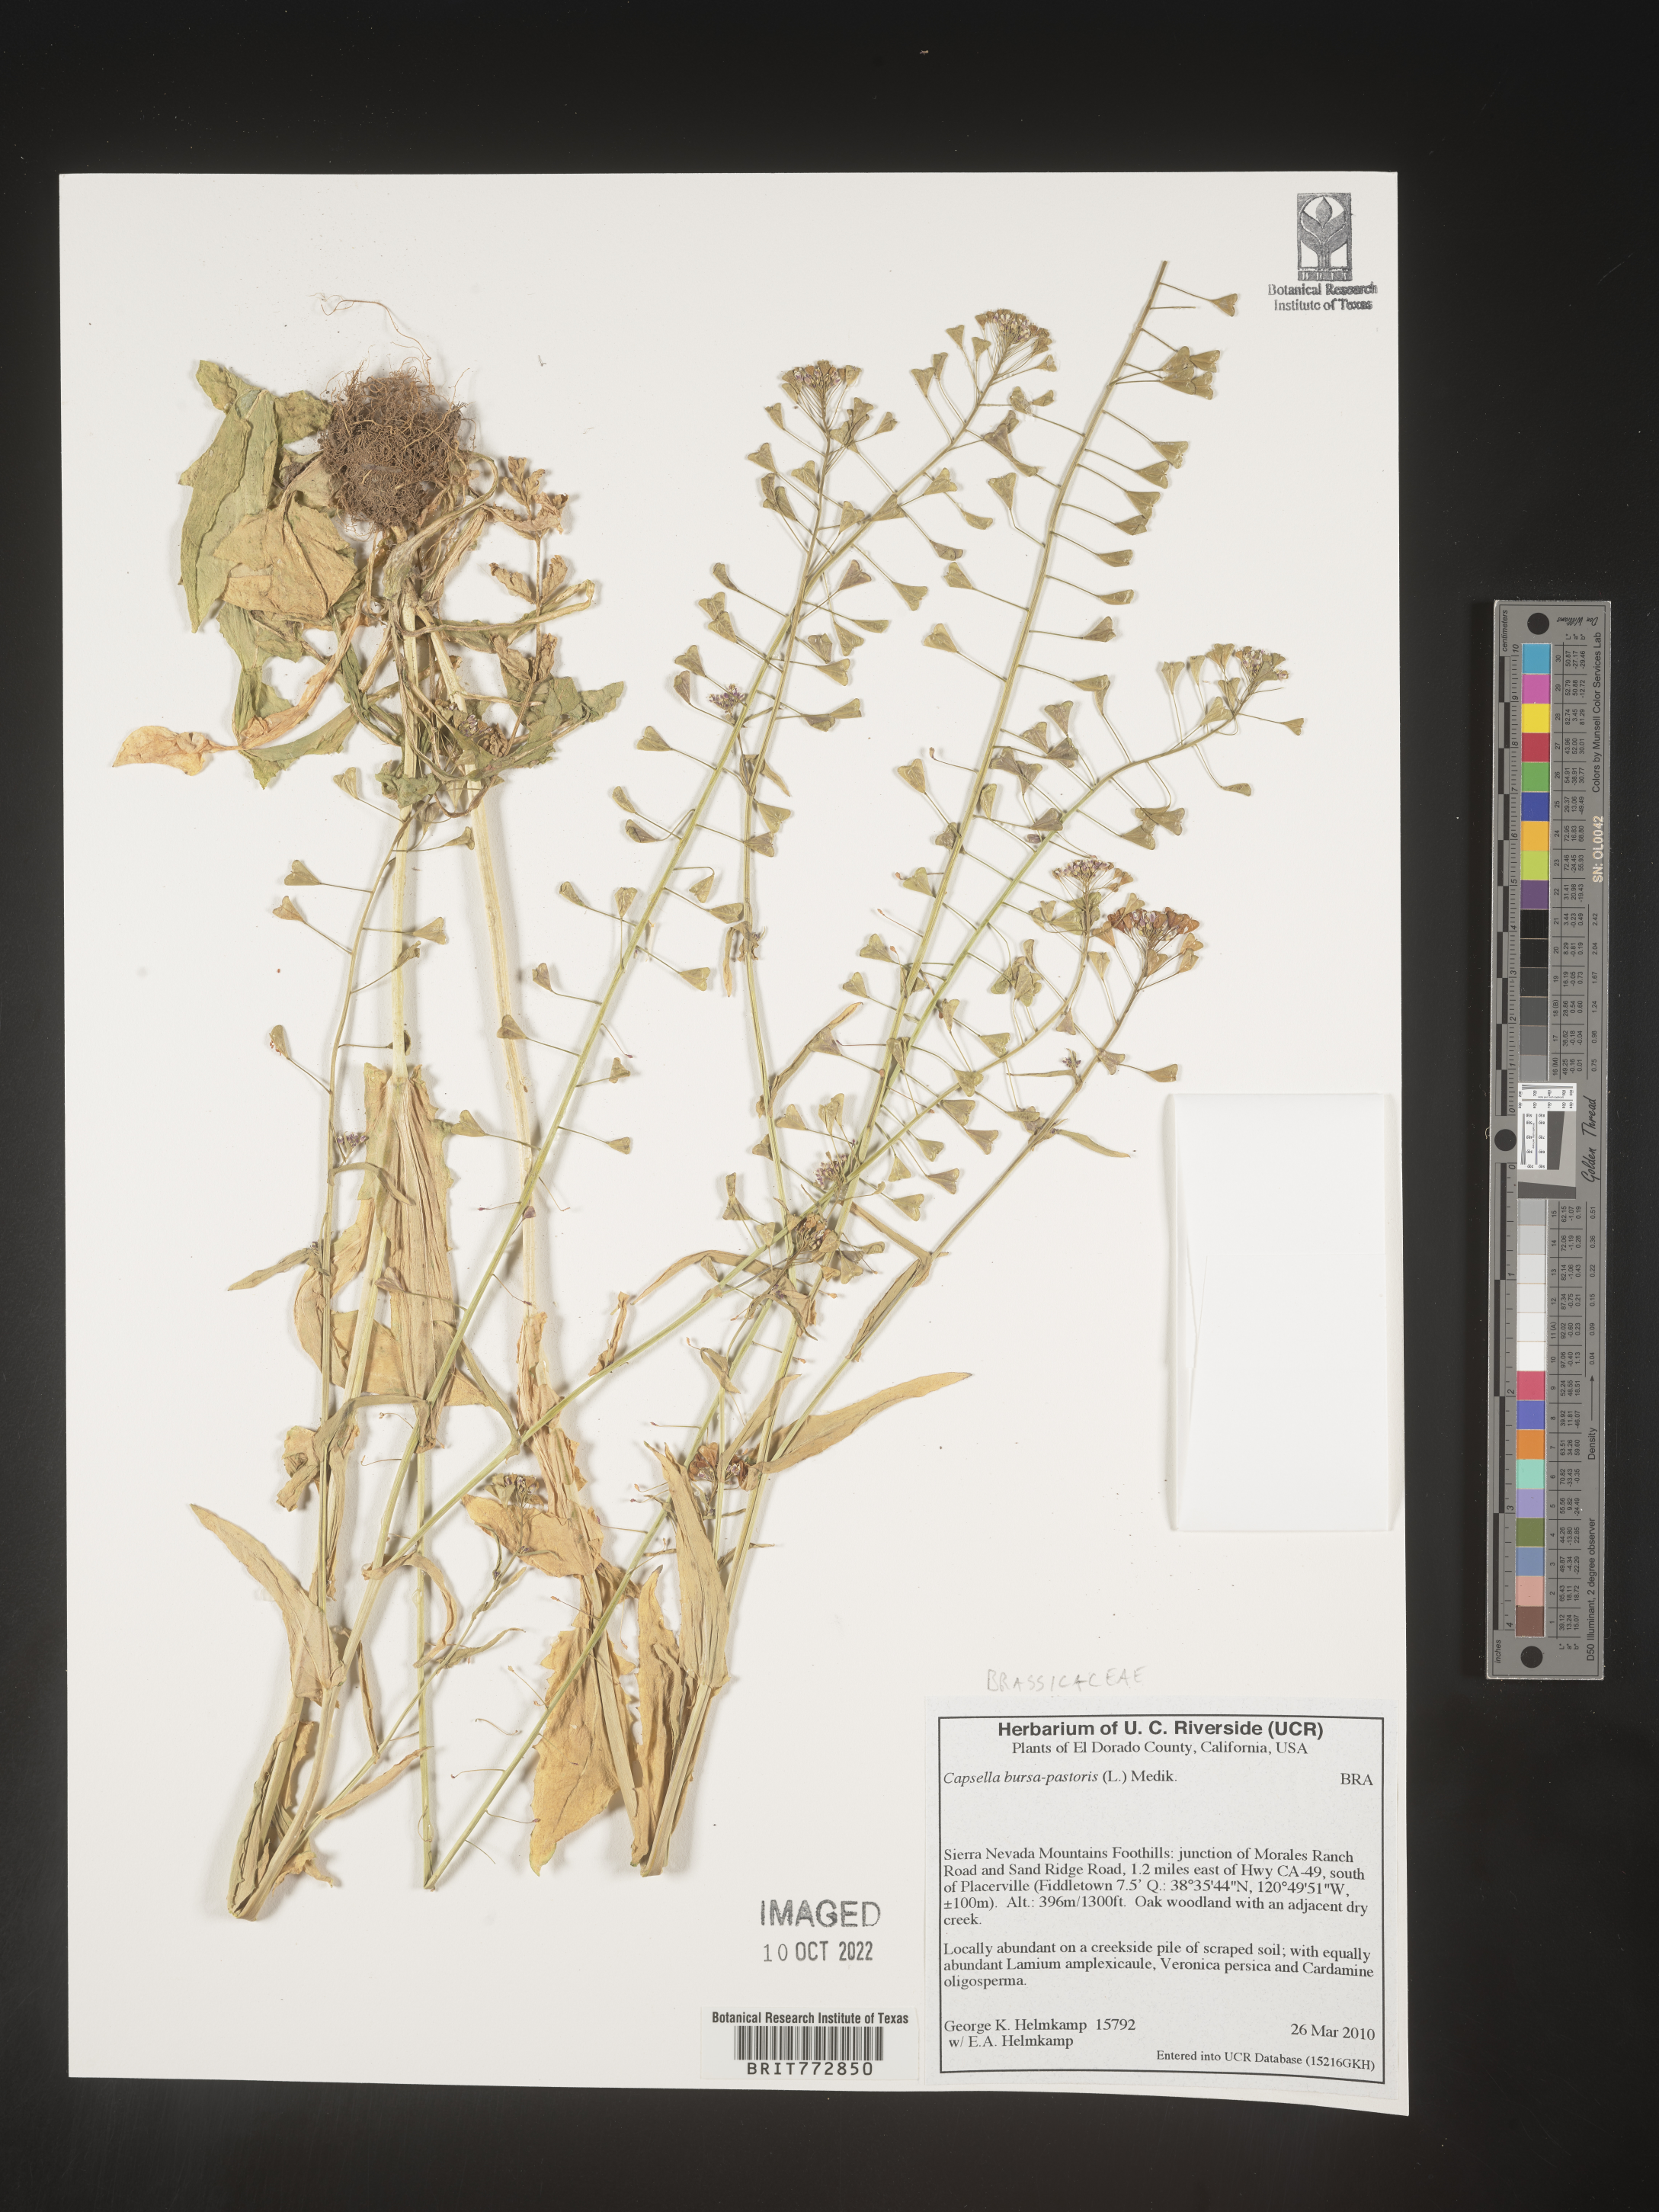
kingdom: Plantae
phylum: Tracheophyta
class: Magnoliopsida
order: Brassicales
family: Brassicaceae
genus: Capsella
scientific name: Capsella bursa-pastoris
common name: Shepherd's purse
